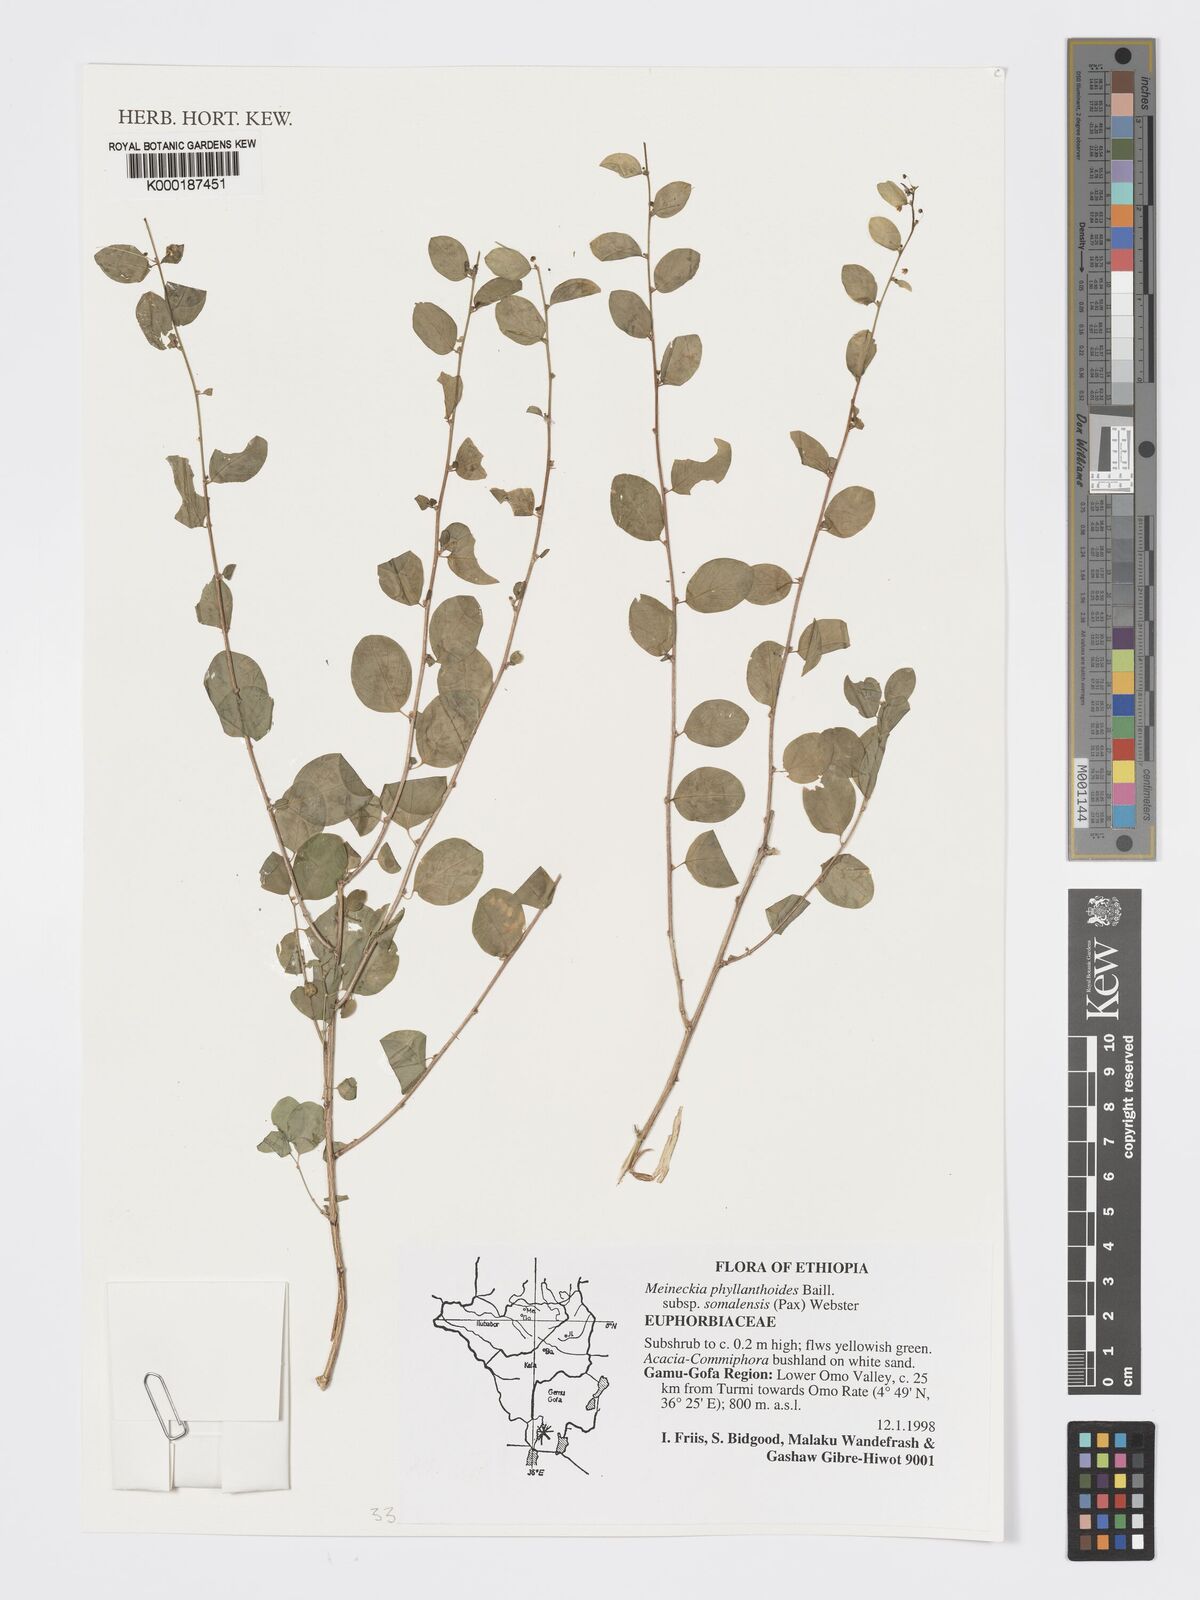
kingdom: Plantae
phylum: Tracheophyta
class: Magnoliopsida
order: Malpighiales
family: Phyllanthaceae
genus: Meineckia
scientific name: Meineckia phyllanthoides
